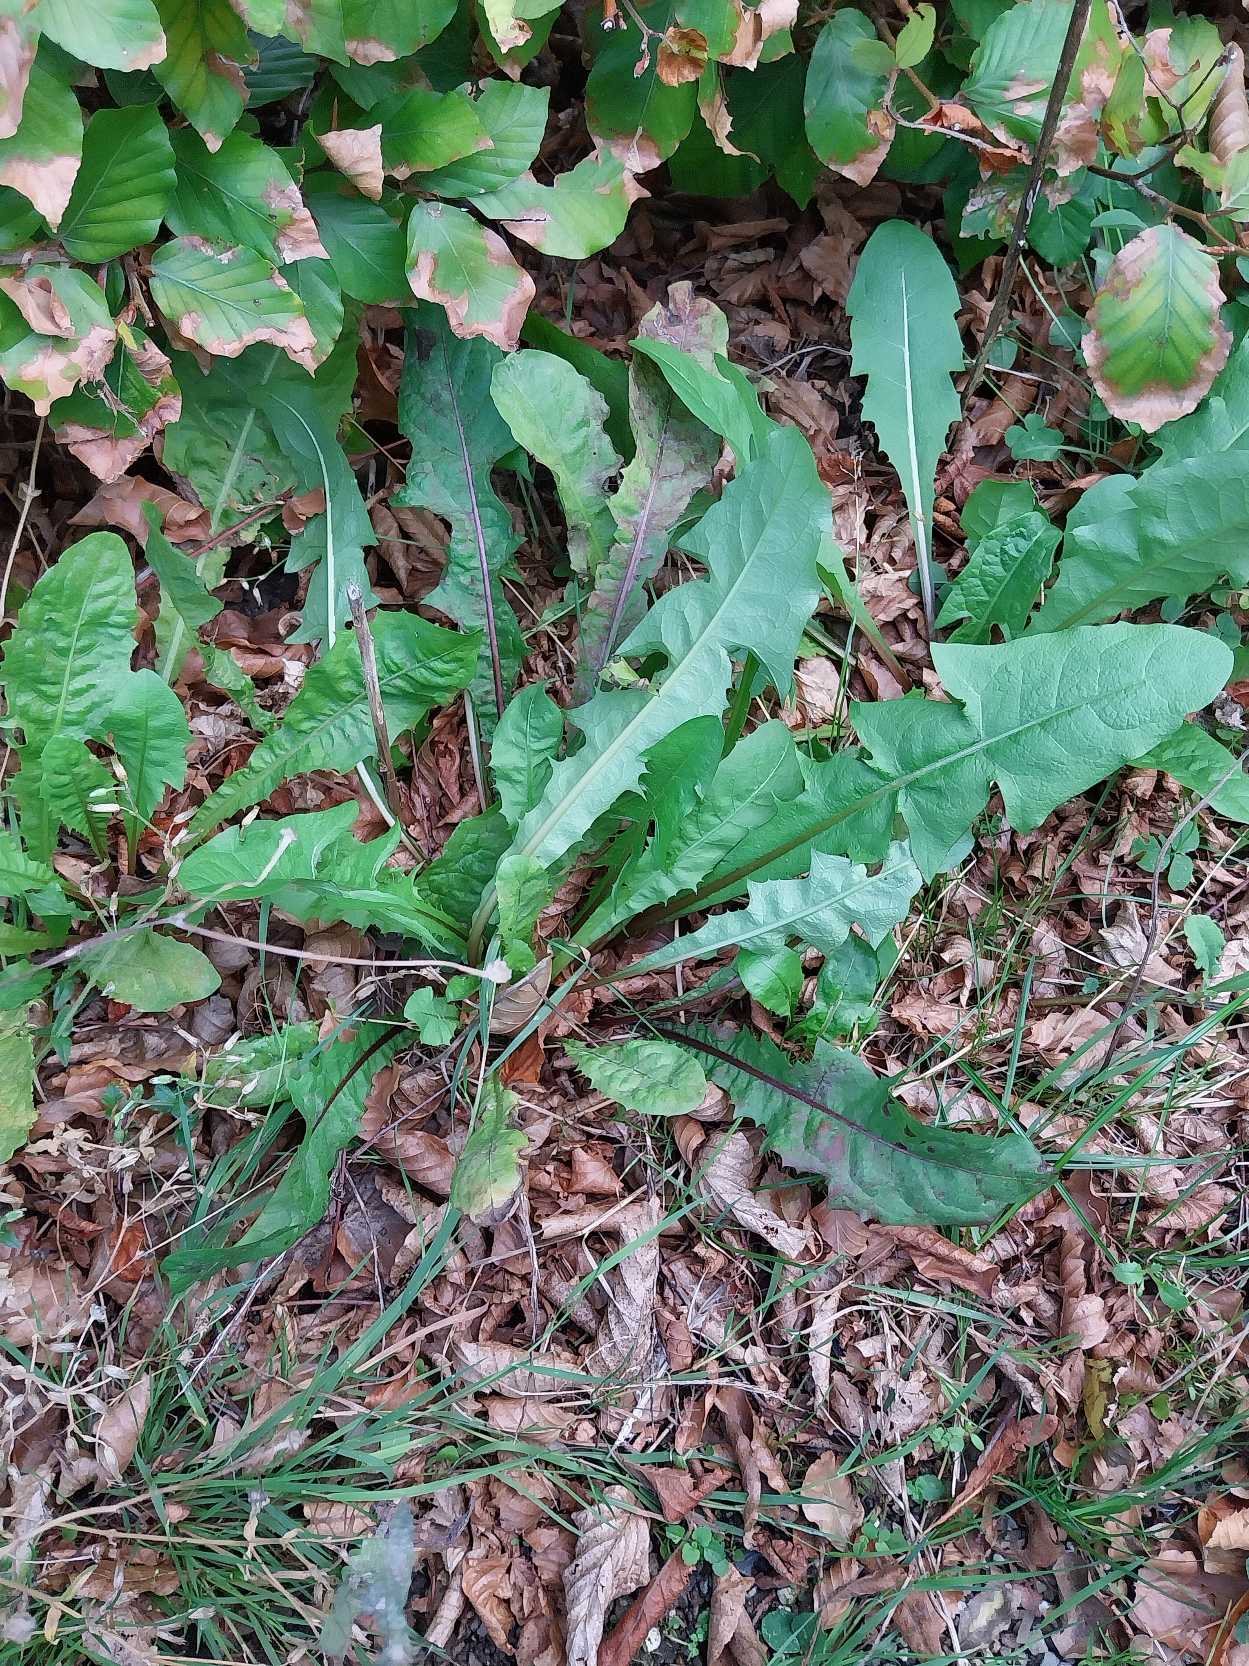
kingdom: Plantae
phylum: Tracheophyta
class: Magnoliopsida
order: Asterales
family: Asteraceae
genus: Taraxacum
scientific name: Taraxacum
